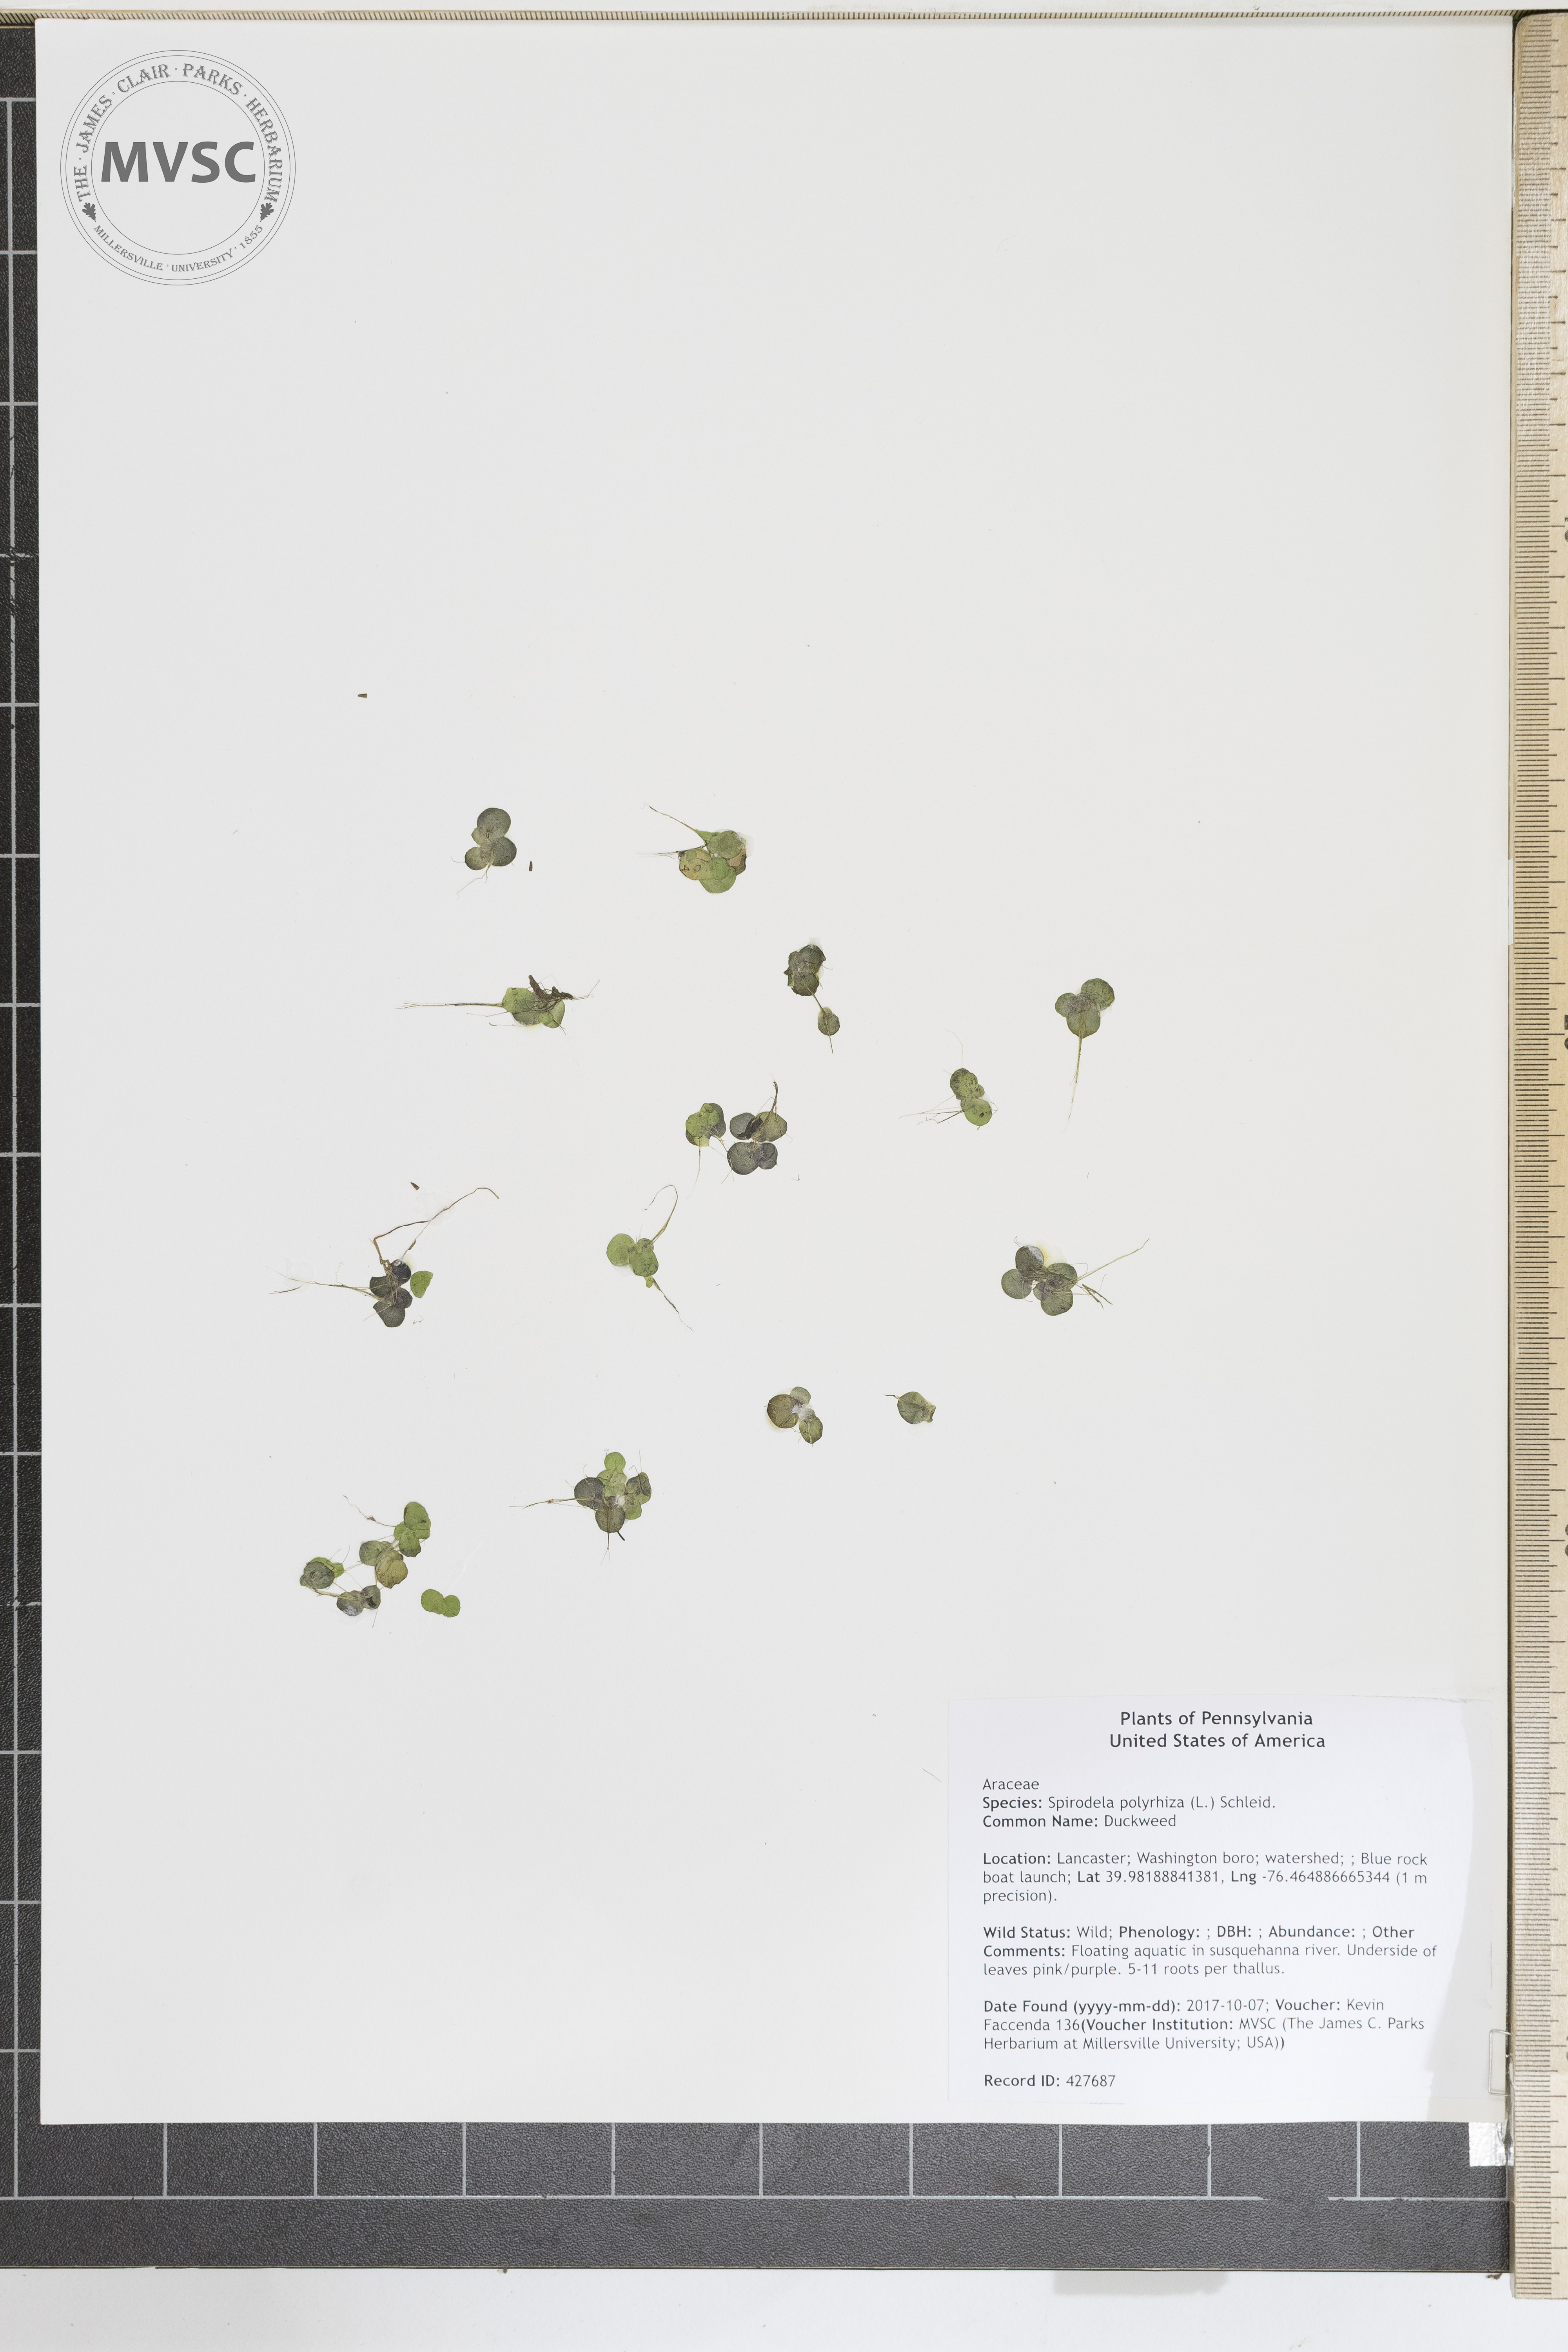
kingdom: Plantae
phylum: Tracheophyta
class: Liliopsida
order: Alismatales
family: Araceae
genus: Spirodela
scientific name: Spirodela polyrhiza
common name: Duckweed
